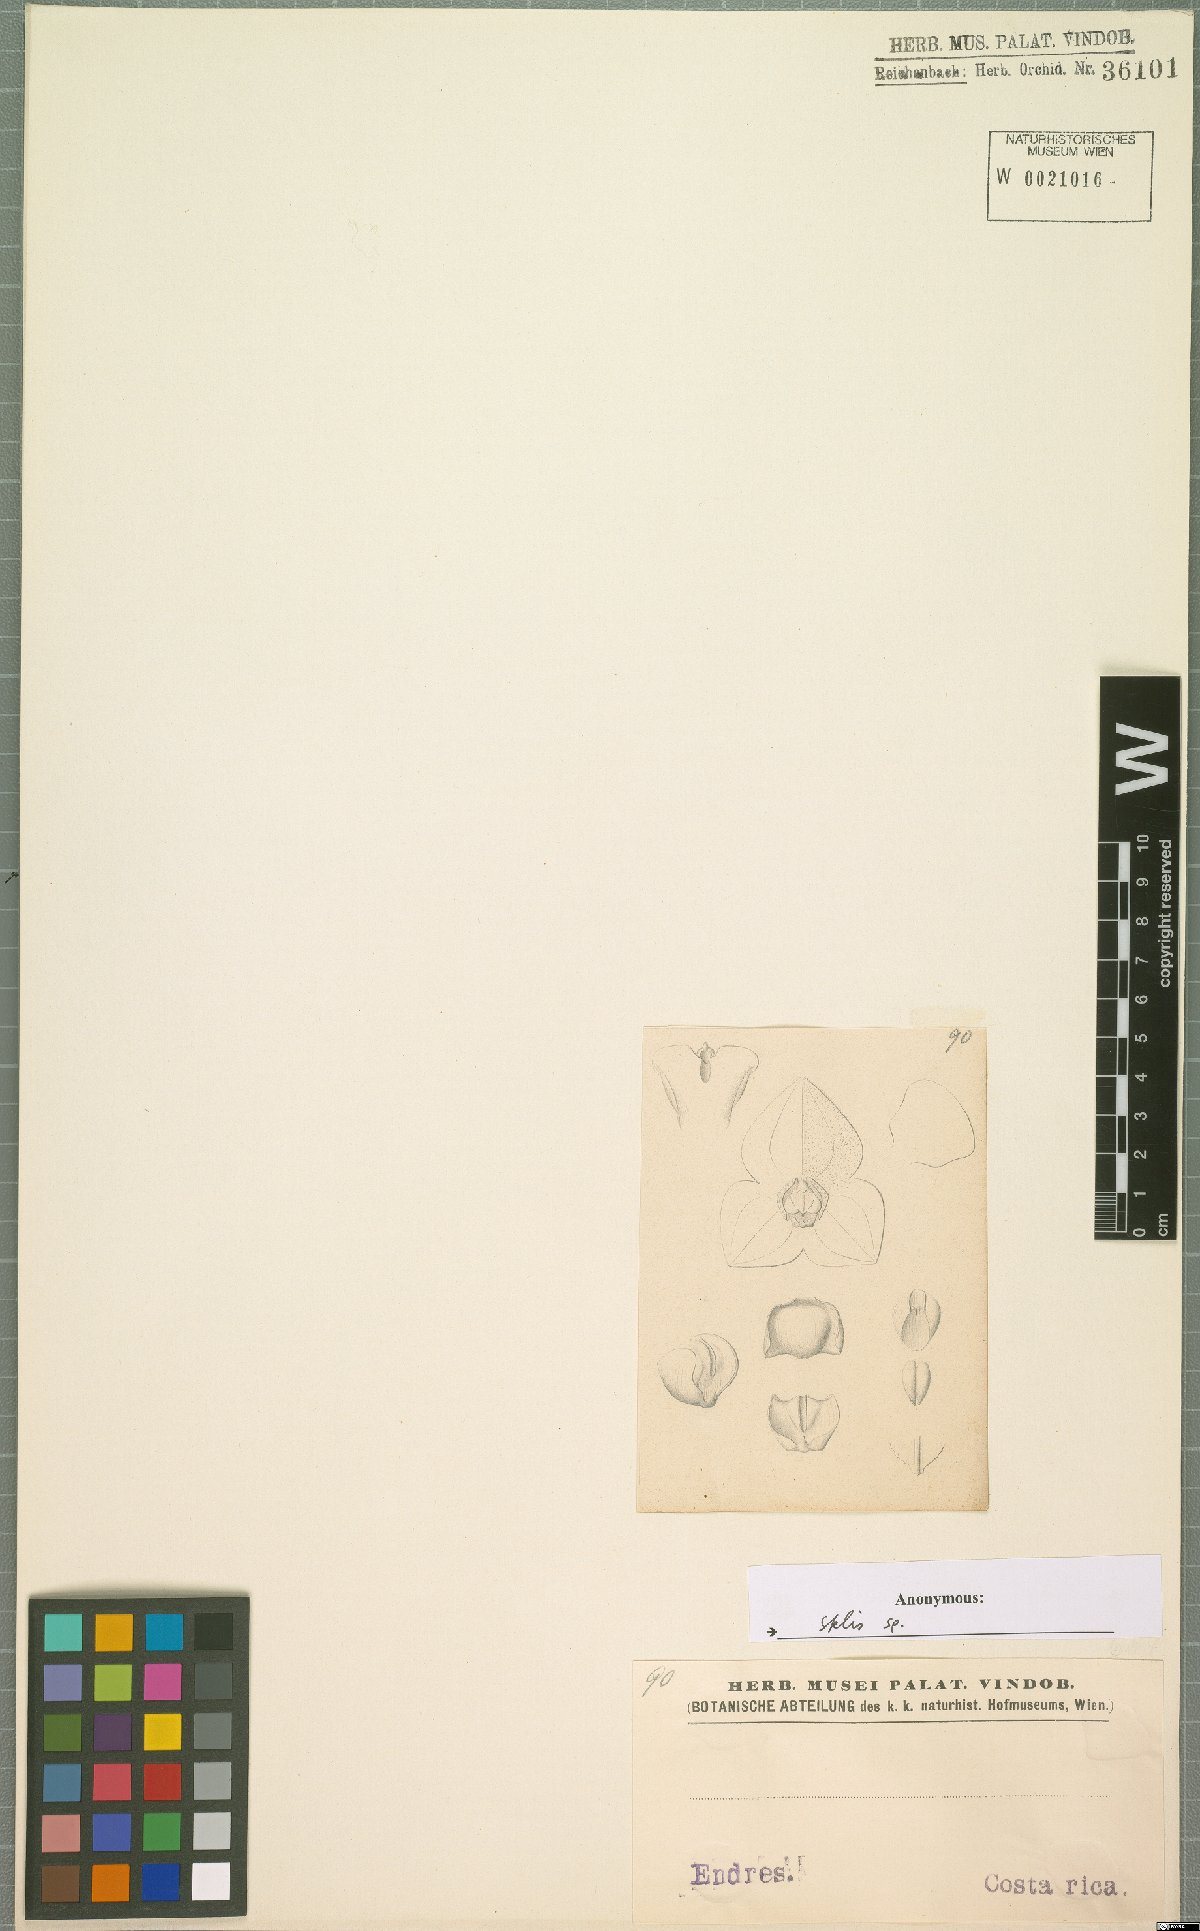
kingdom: Plantae
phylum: Tracheophyta
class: Liliopsida
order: Asparagales
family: Orchidaceae
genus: Stelis
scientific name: Stelis
